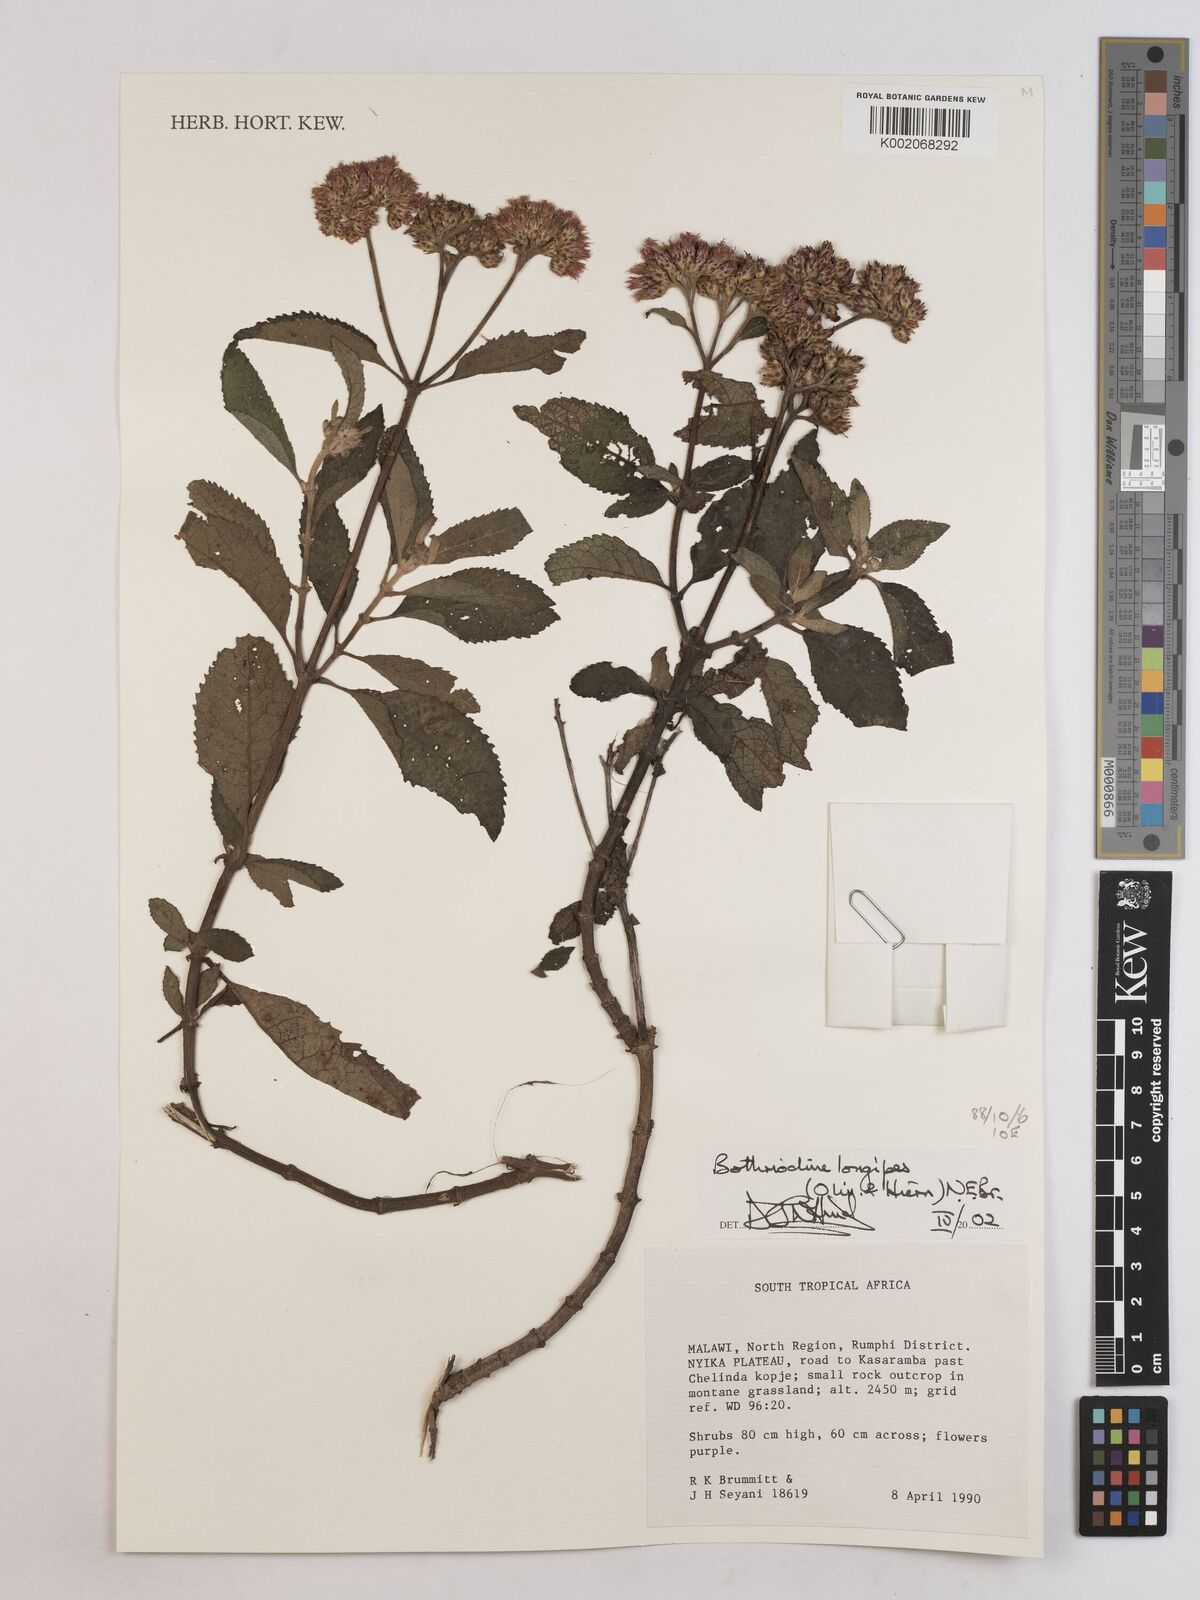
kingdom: Plantae
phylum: Tracheophyta
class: Magnoliopsida
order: Asterales
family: Asteraceae
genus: Bothriocline
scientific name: Bothriocline longipes
